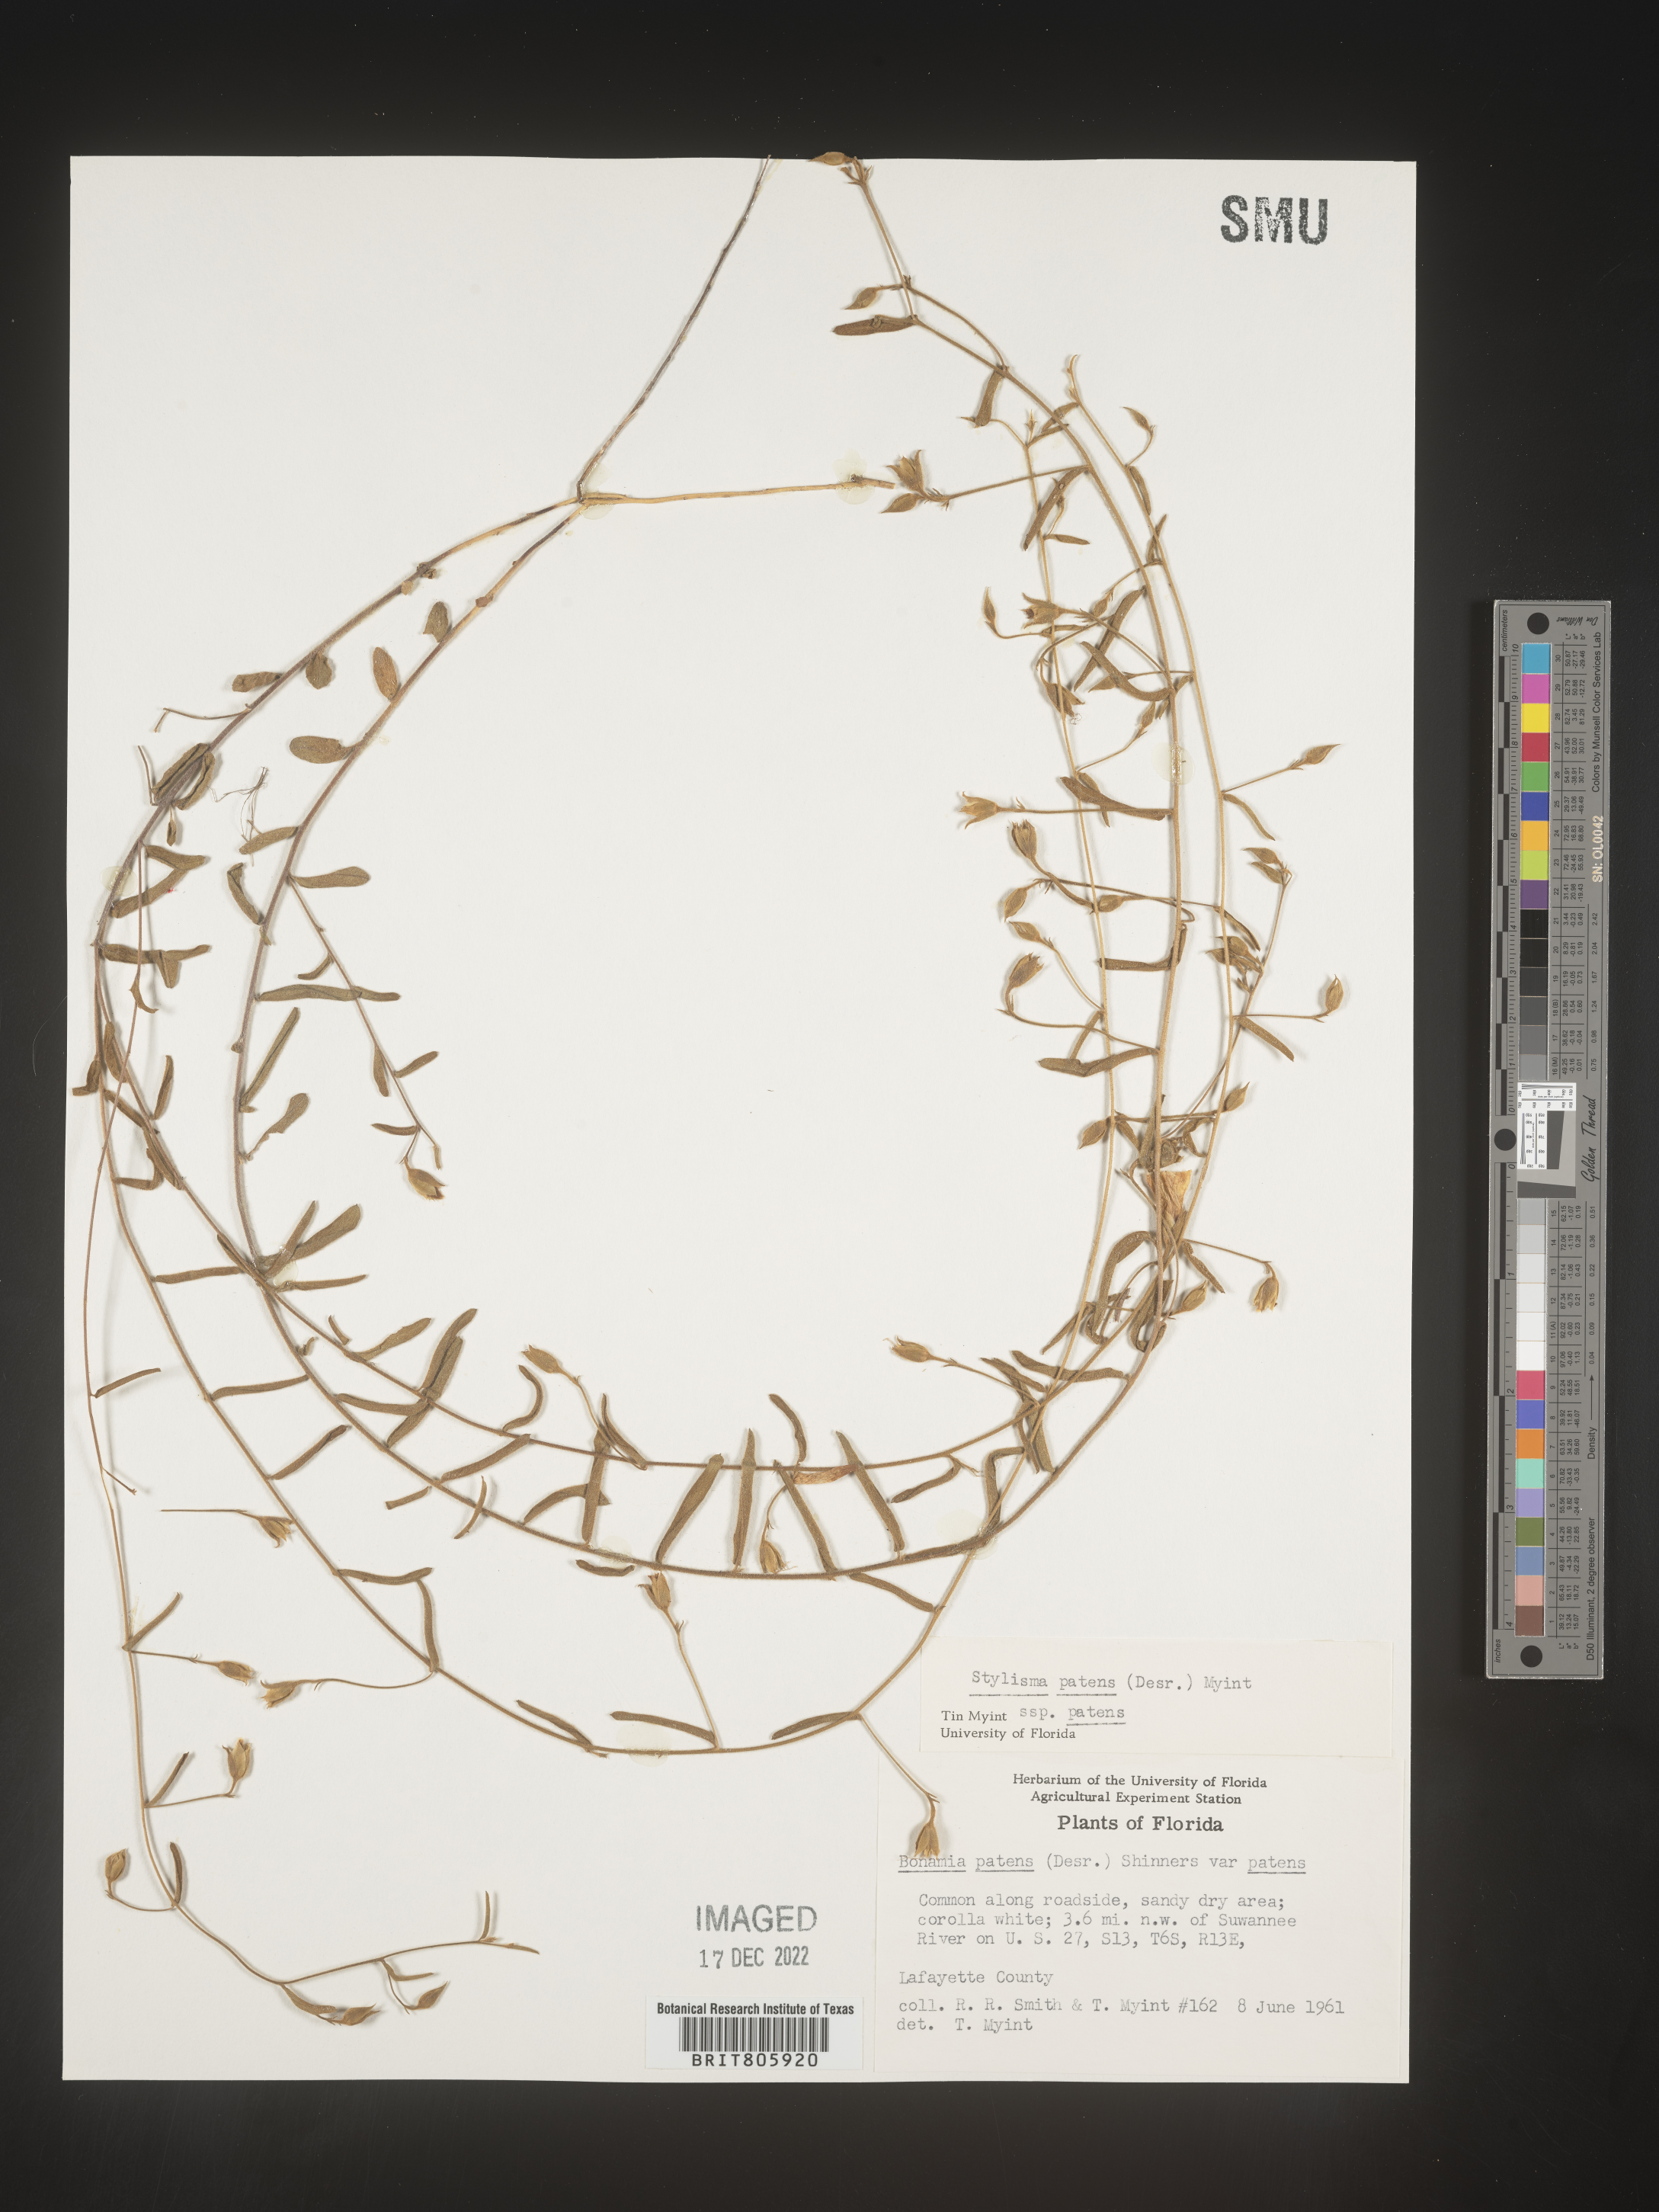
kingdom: Plantae
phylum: Tracheophyta
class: Magnoliopsida
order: Solanales
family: Convolvulaceae
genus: Stylisma
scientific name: Stylisma
